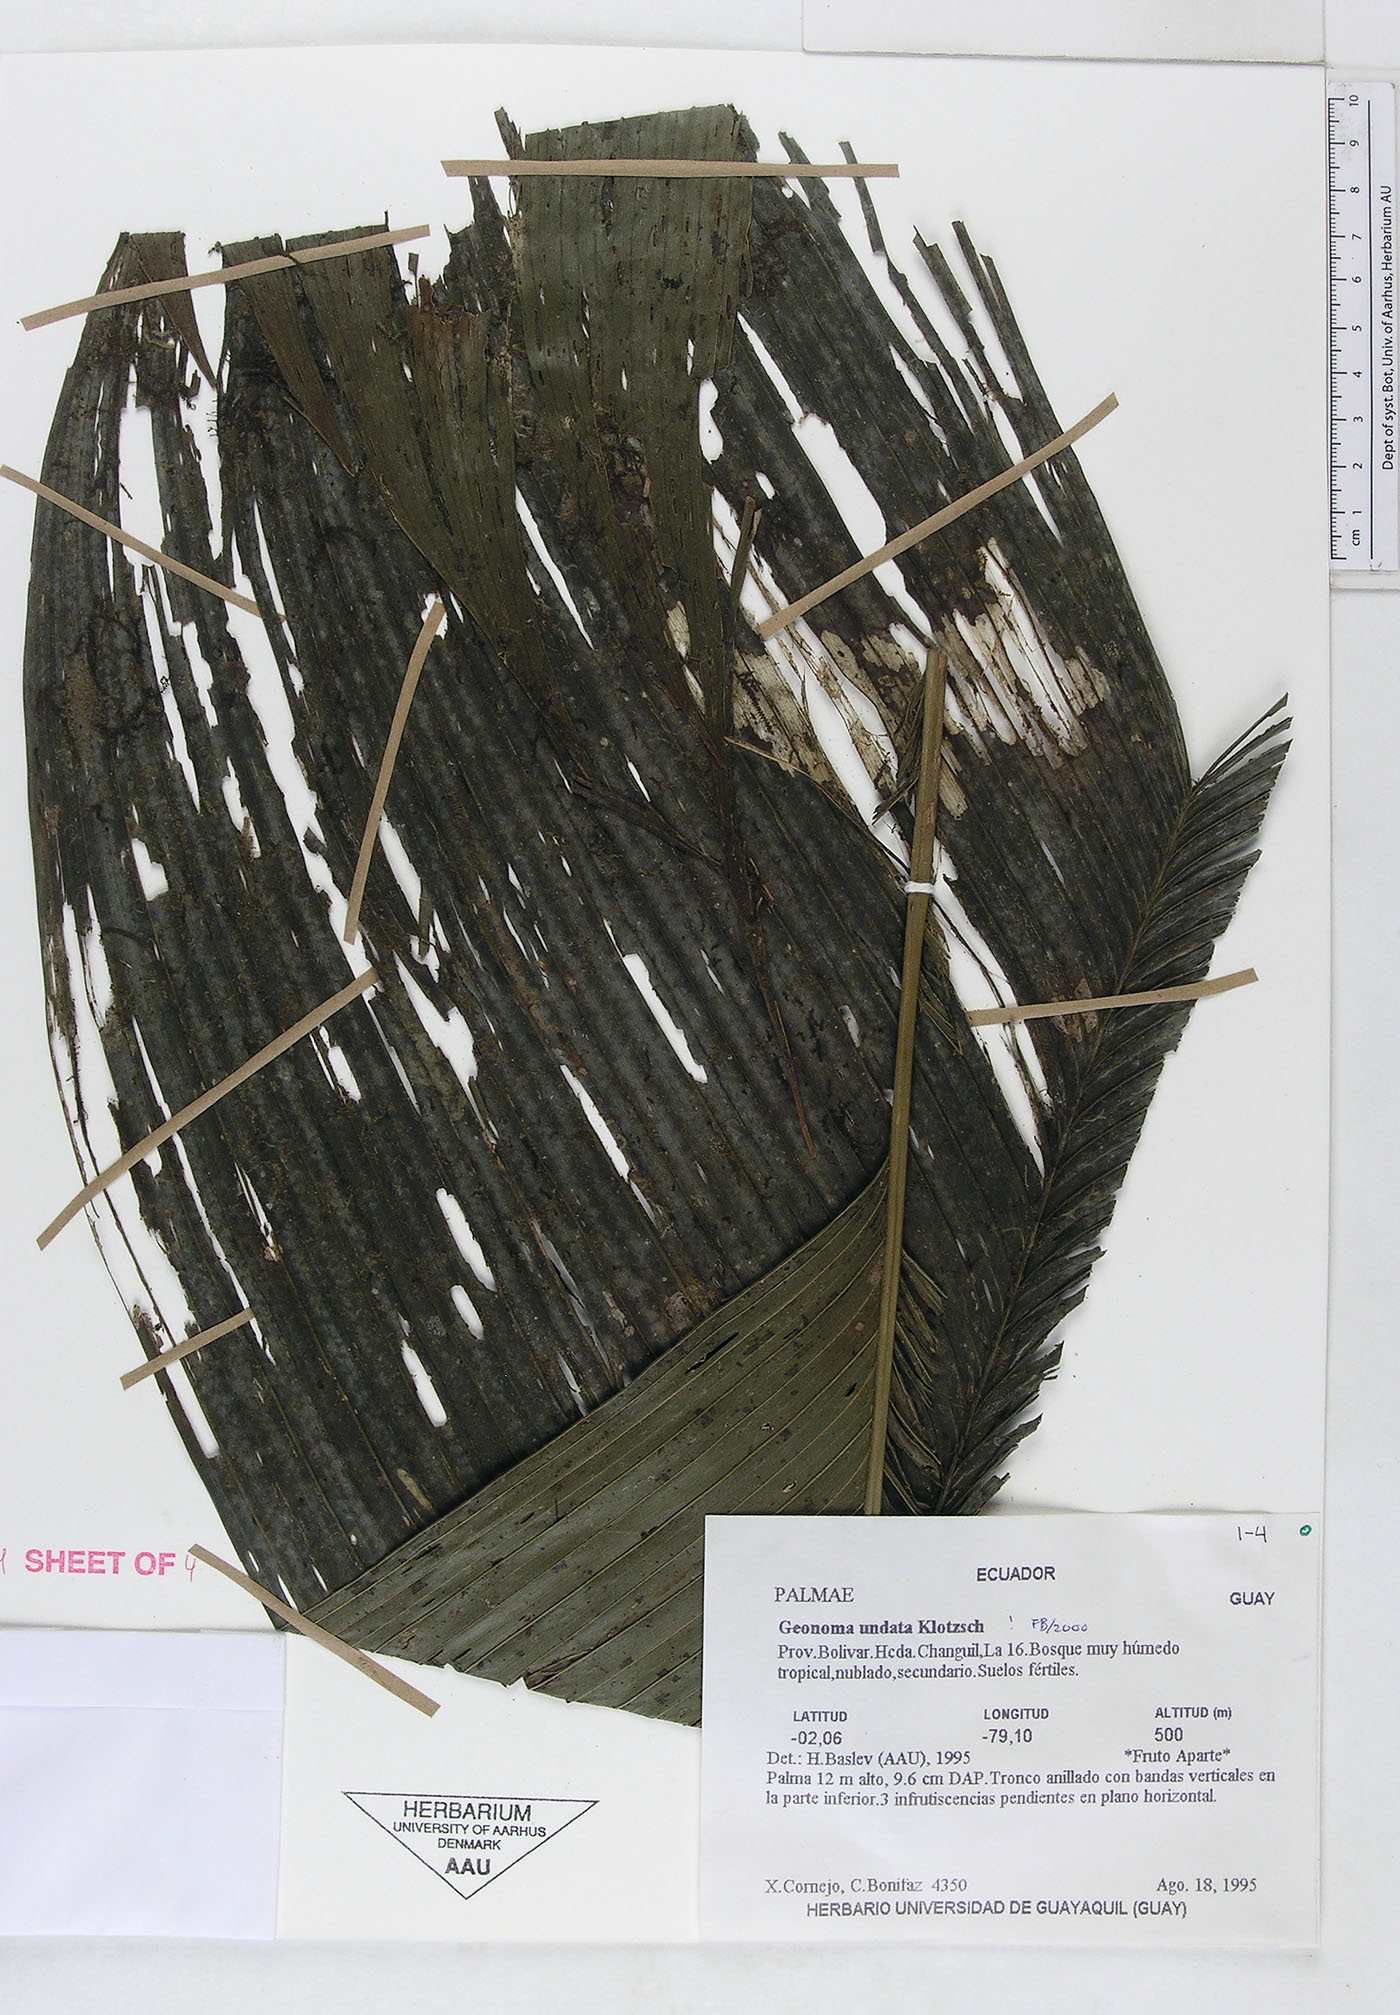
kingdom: Plantae
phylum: Tracheophyta
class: Liliopsida
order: Arecales
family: Arecaceae
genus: Geonoma
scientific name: Geonoma undata
